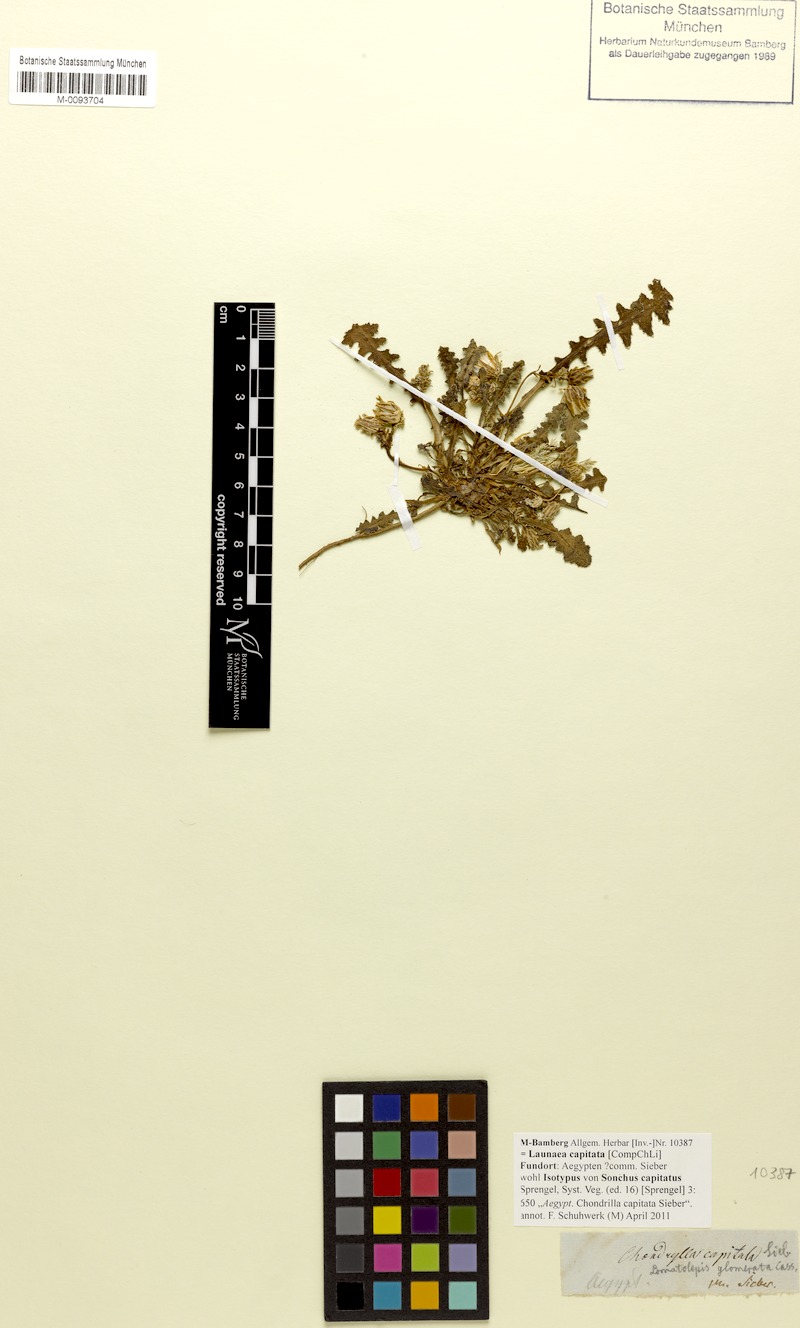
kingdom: Plantae
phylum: Tracheophyta
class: Magnoliopsida
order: Asterales
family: Asteraceae
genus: Launaea
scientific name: Launaea capitata
